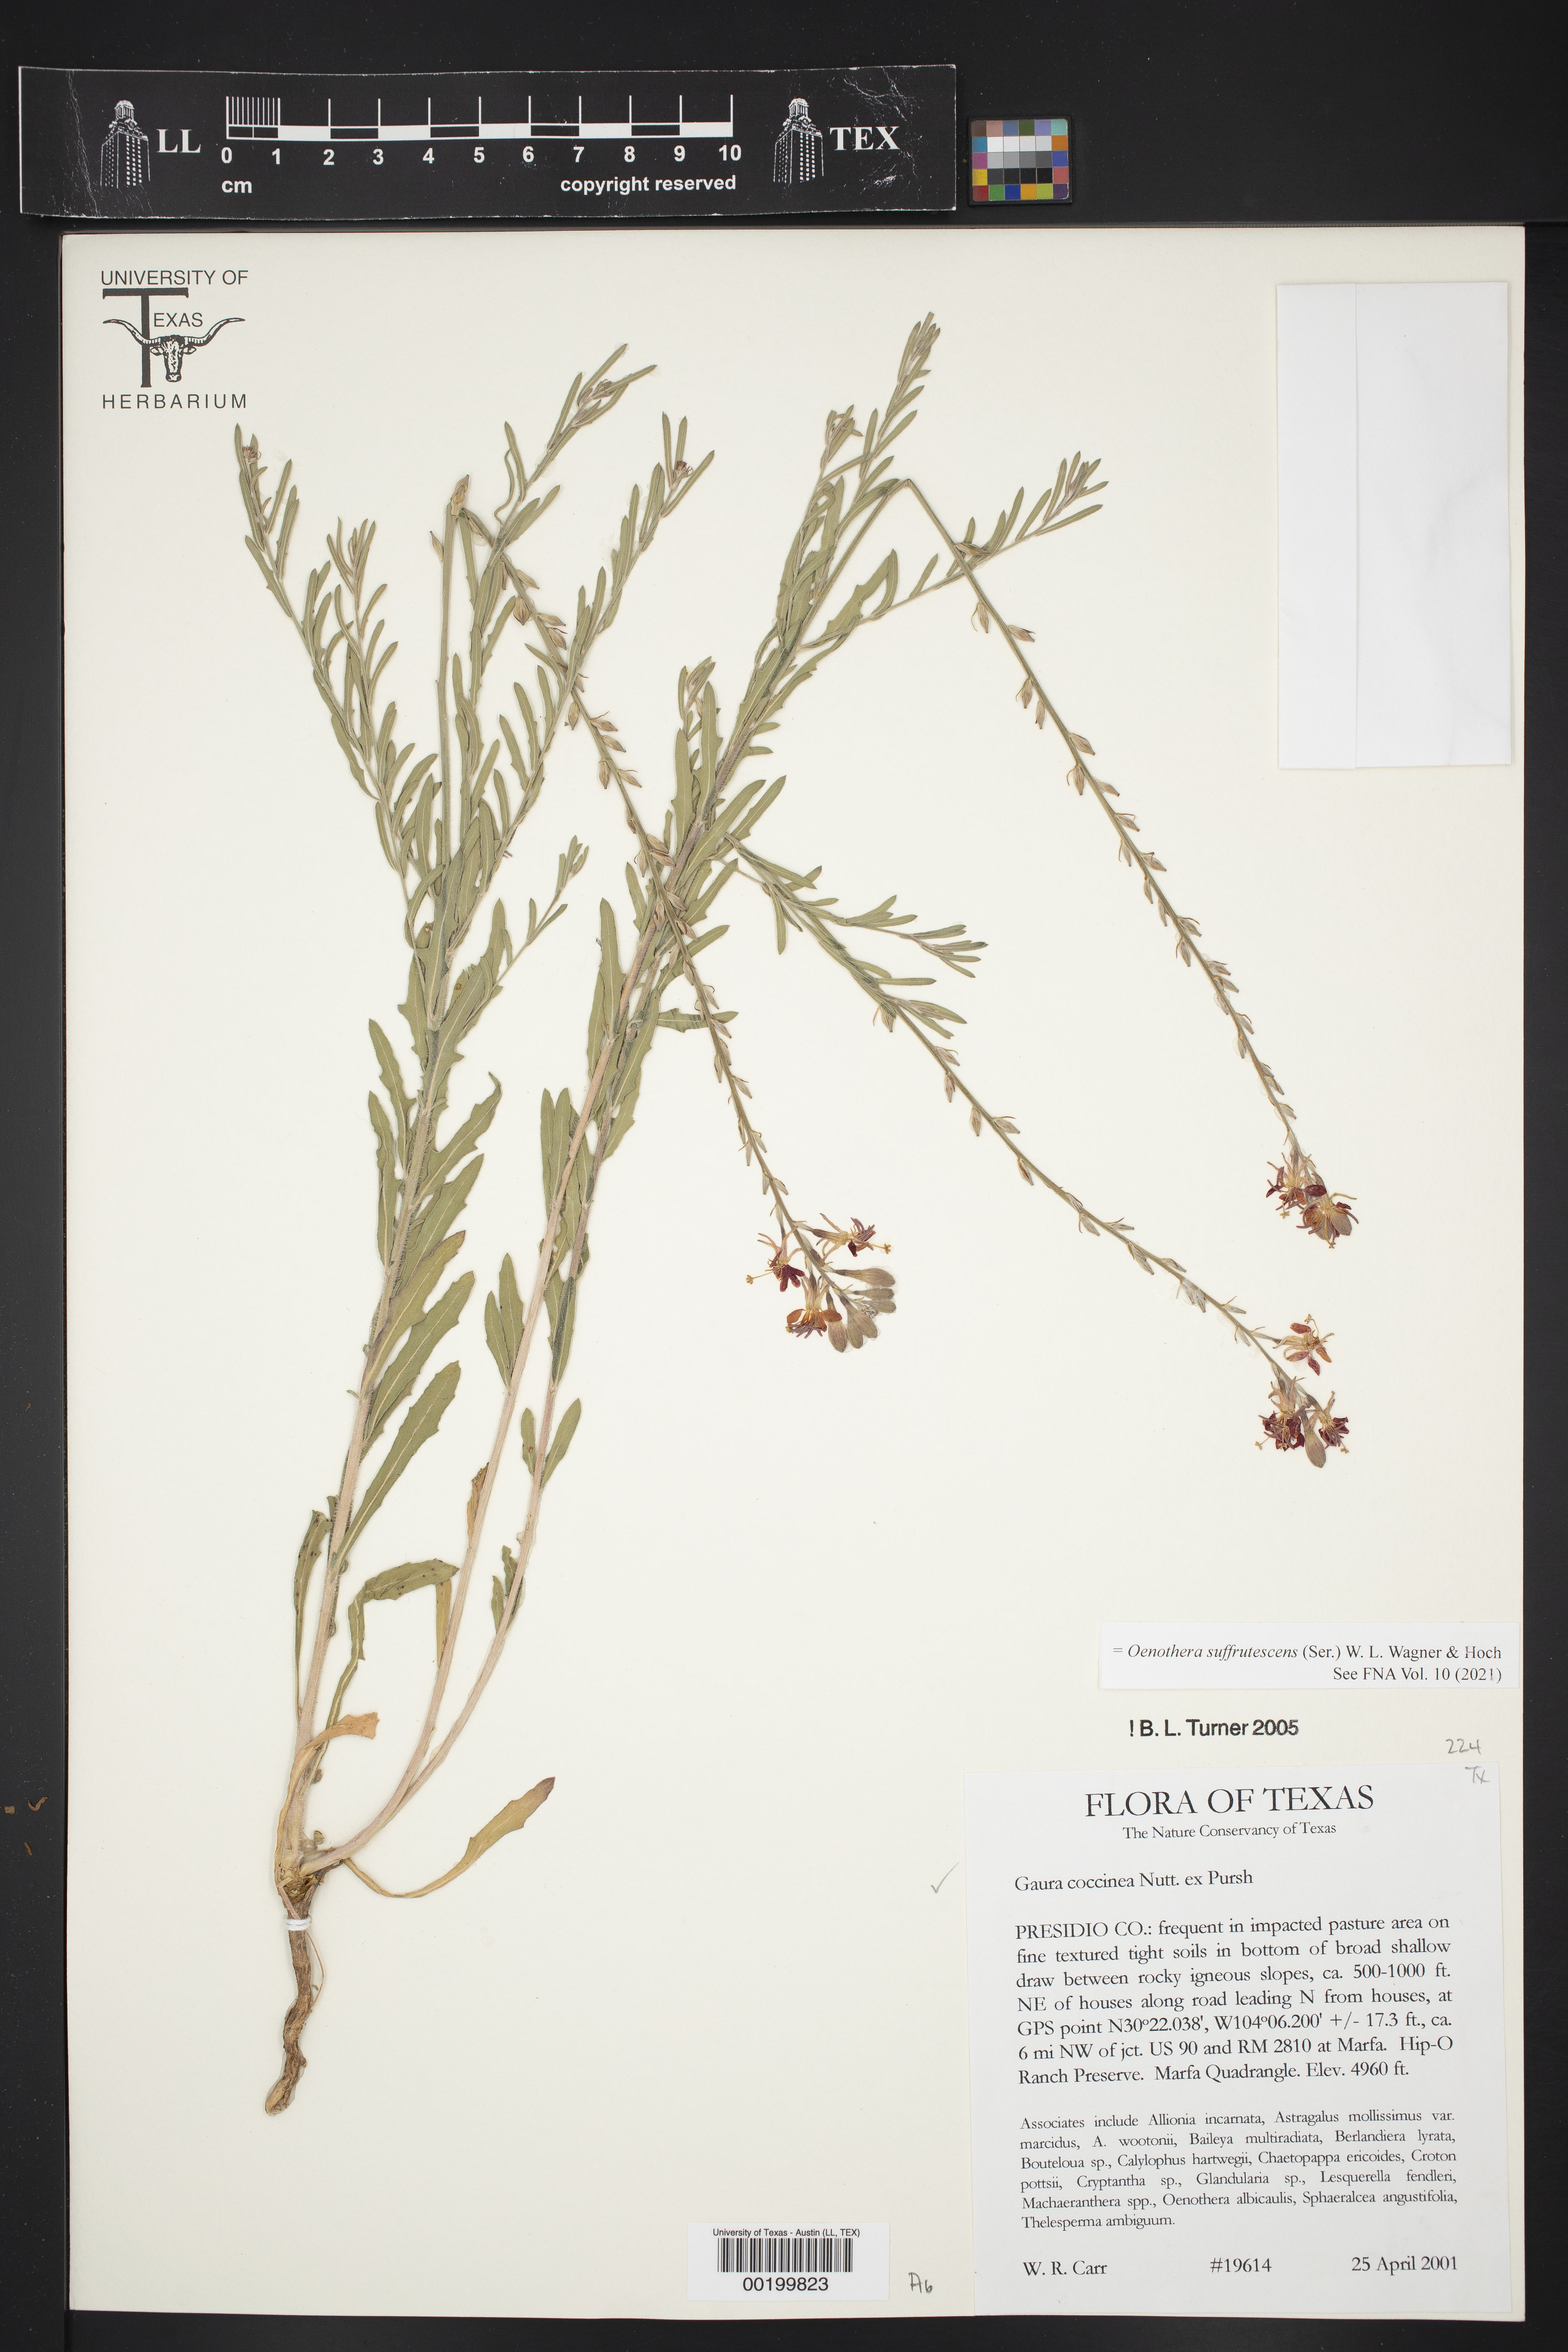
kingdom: Plantae
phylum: Tracheophyta
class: Magnoliopsida
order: Myrtales
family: Onagraceae
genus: Oenothera
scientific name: Oenothera suffrutescens
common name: Scarlet beeblossom
